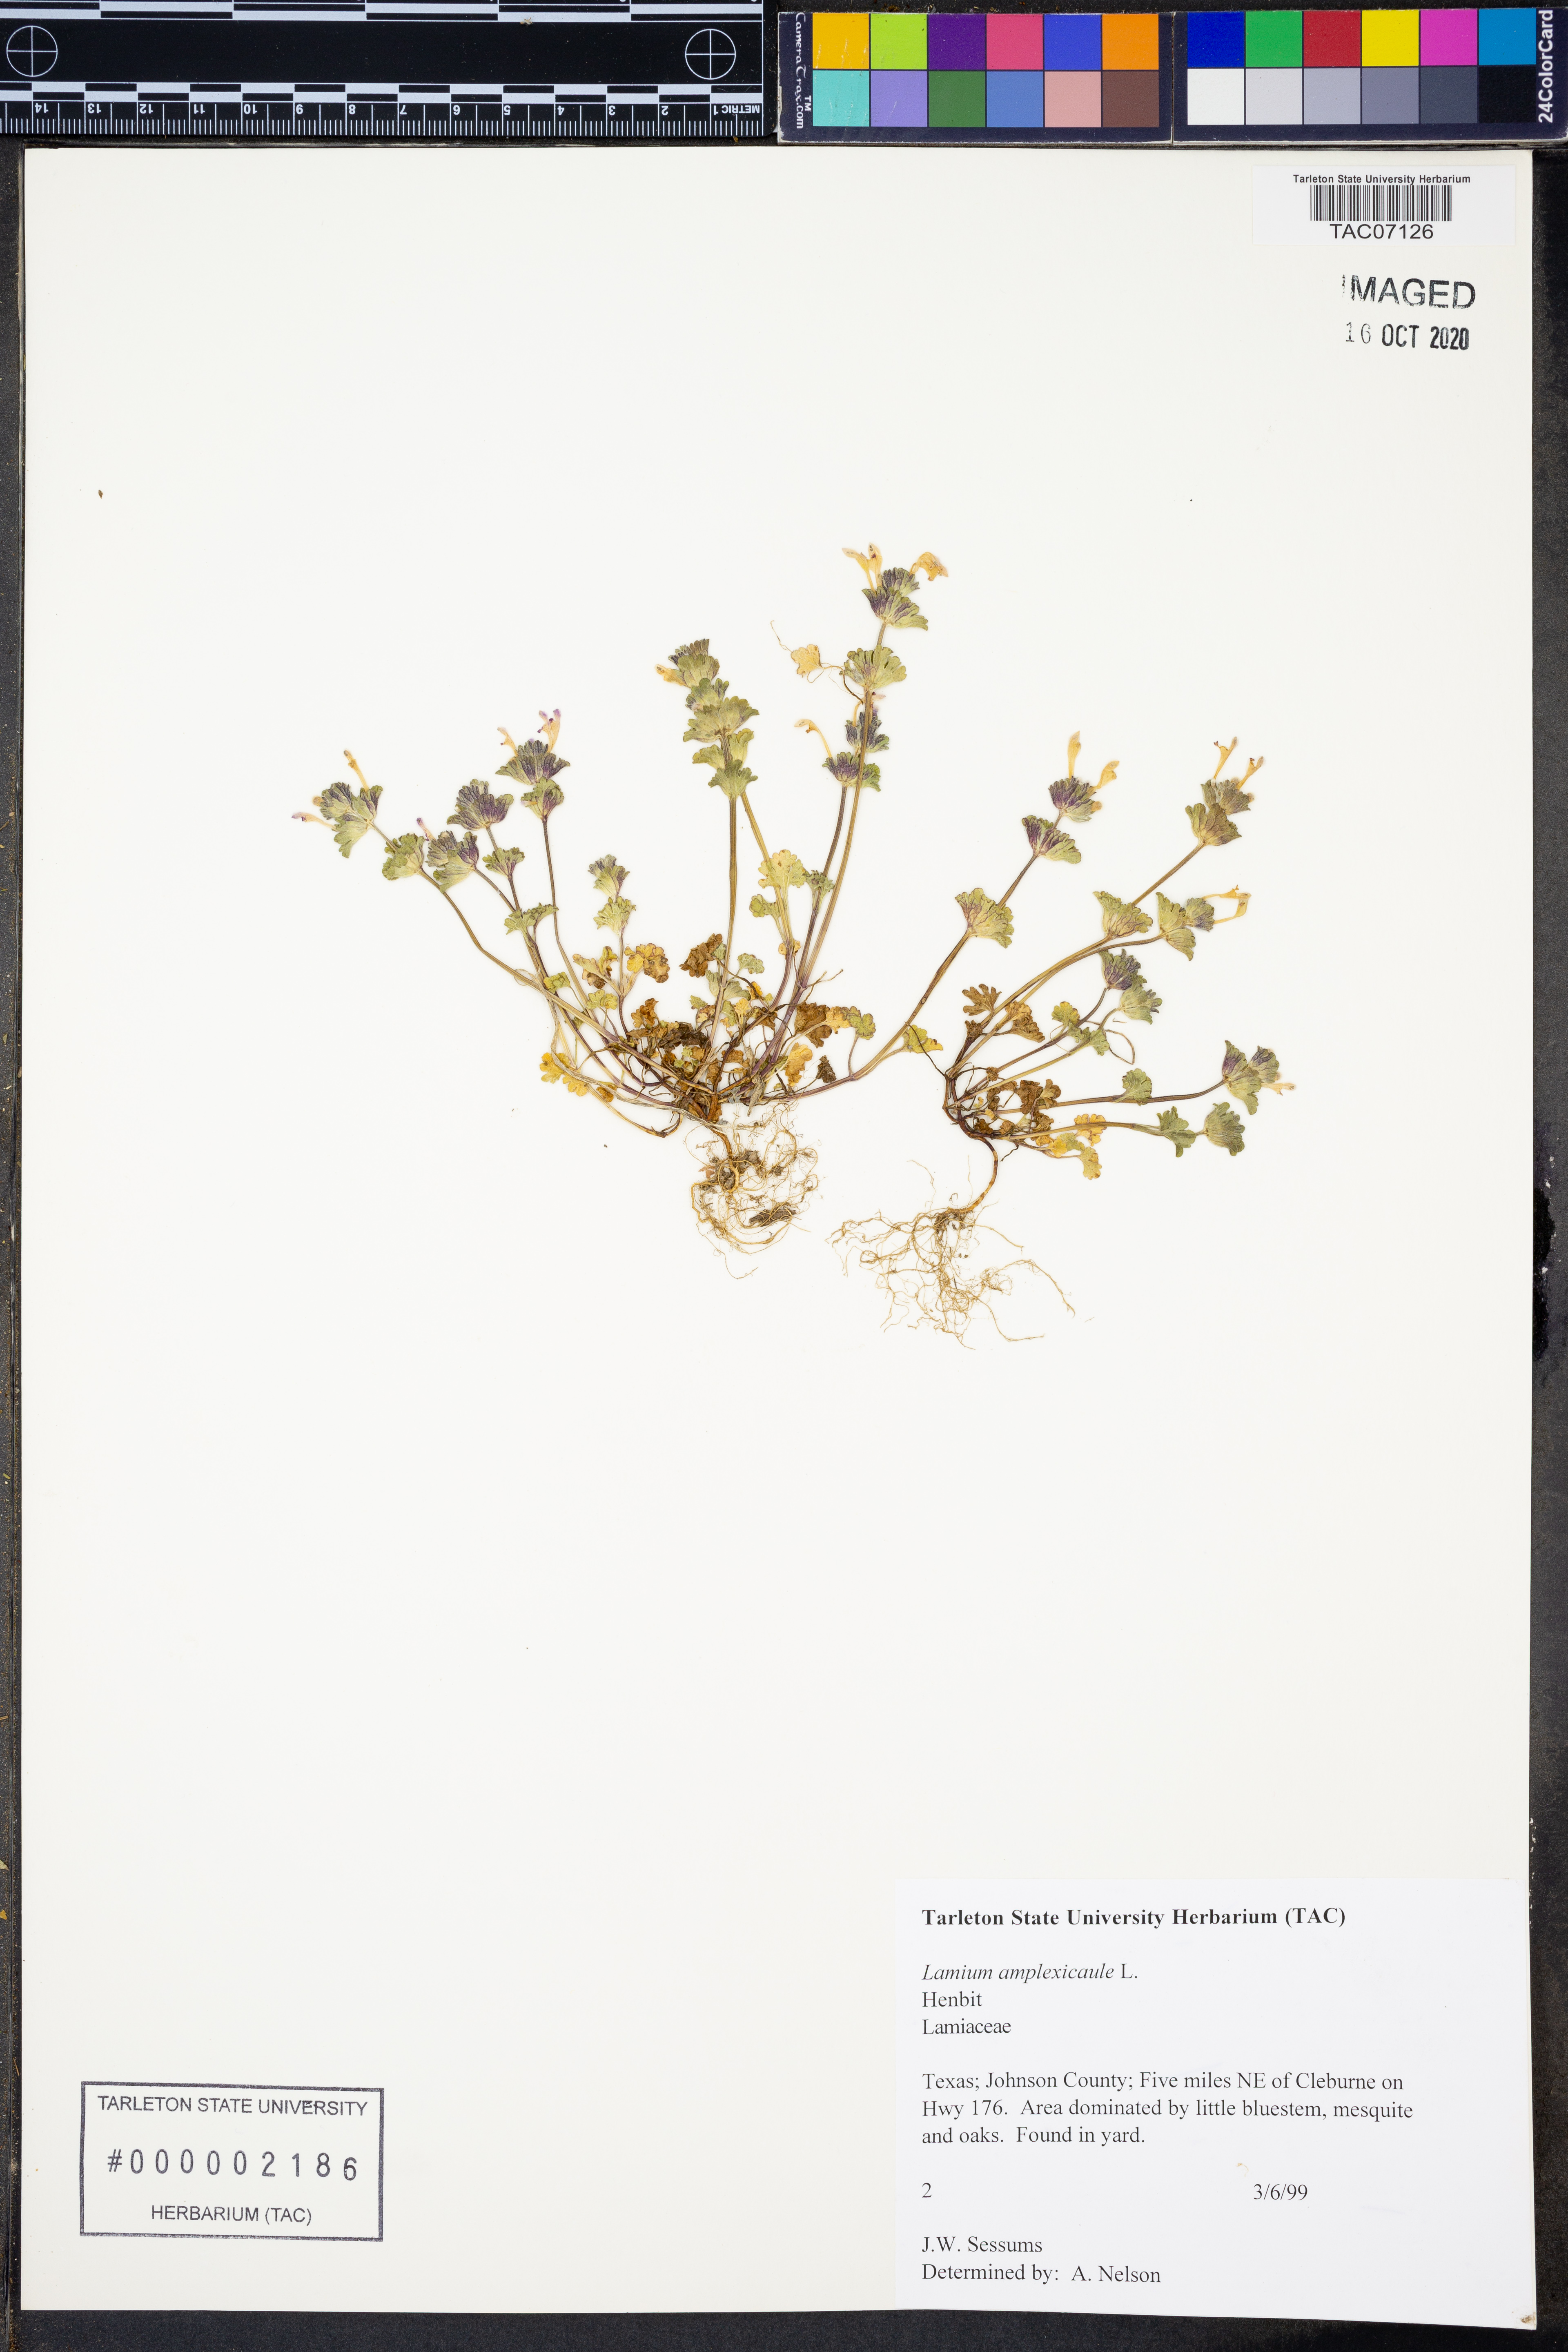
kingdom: Plantae
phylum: Tracheophyta
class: Magnoliopsida
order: Lamiales
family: Lamiaceae
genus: Lamium
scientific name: Lamium amplexicaule
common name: Henbit dead-nettle
